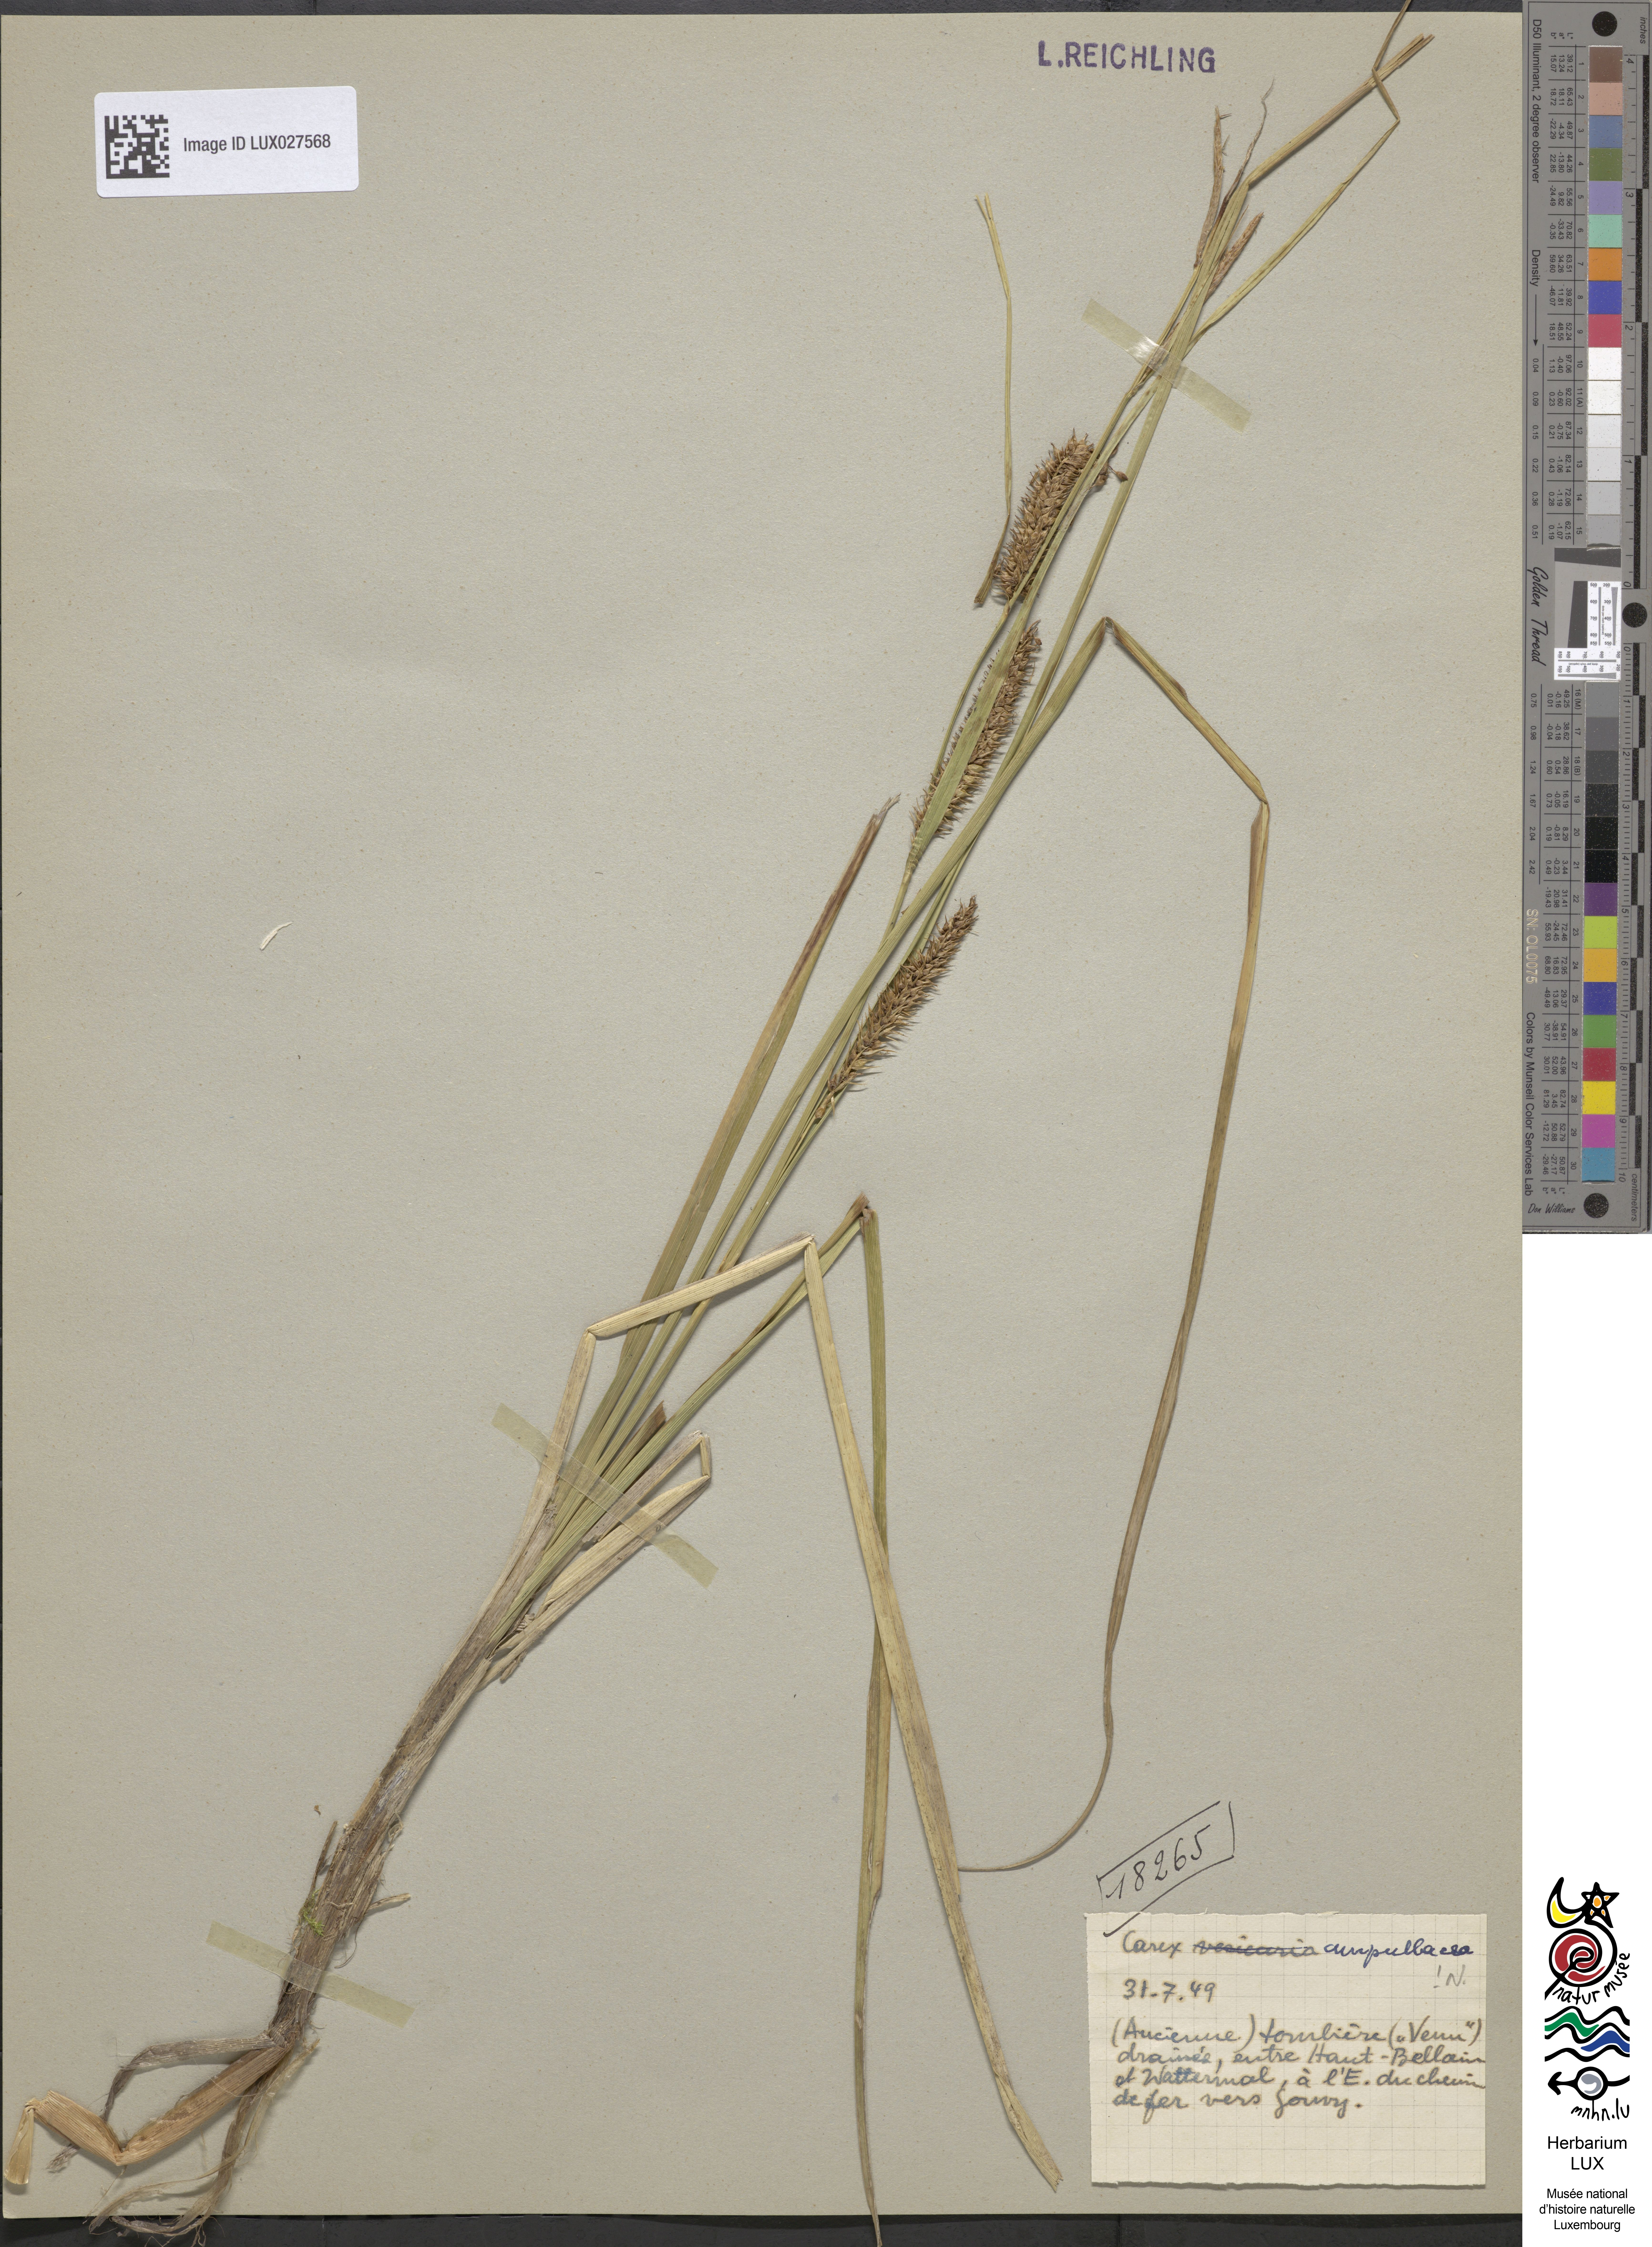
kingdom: Plantae
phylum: Tracheophyta
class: Liliopsida
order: Poales
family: Cyperaceae
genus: Carex
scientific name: Carex rostrata
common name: Bottle sedge
